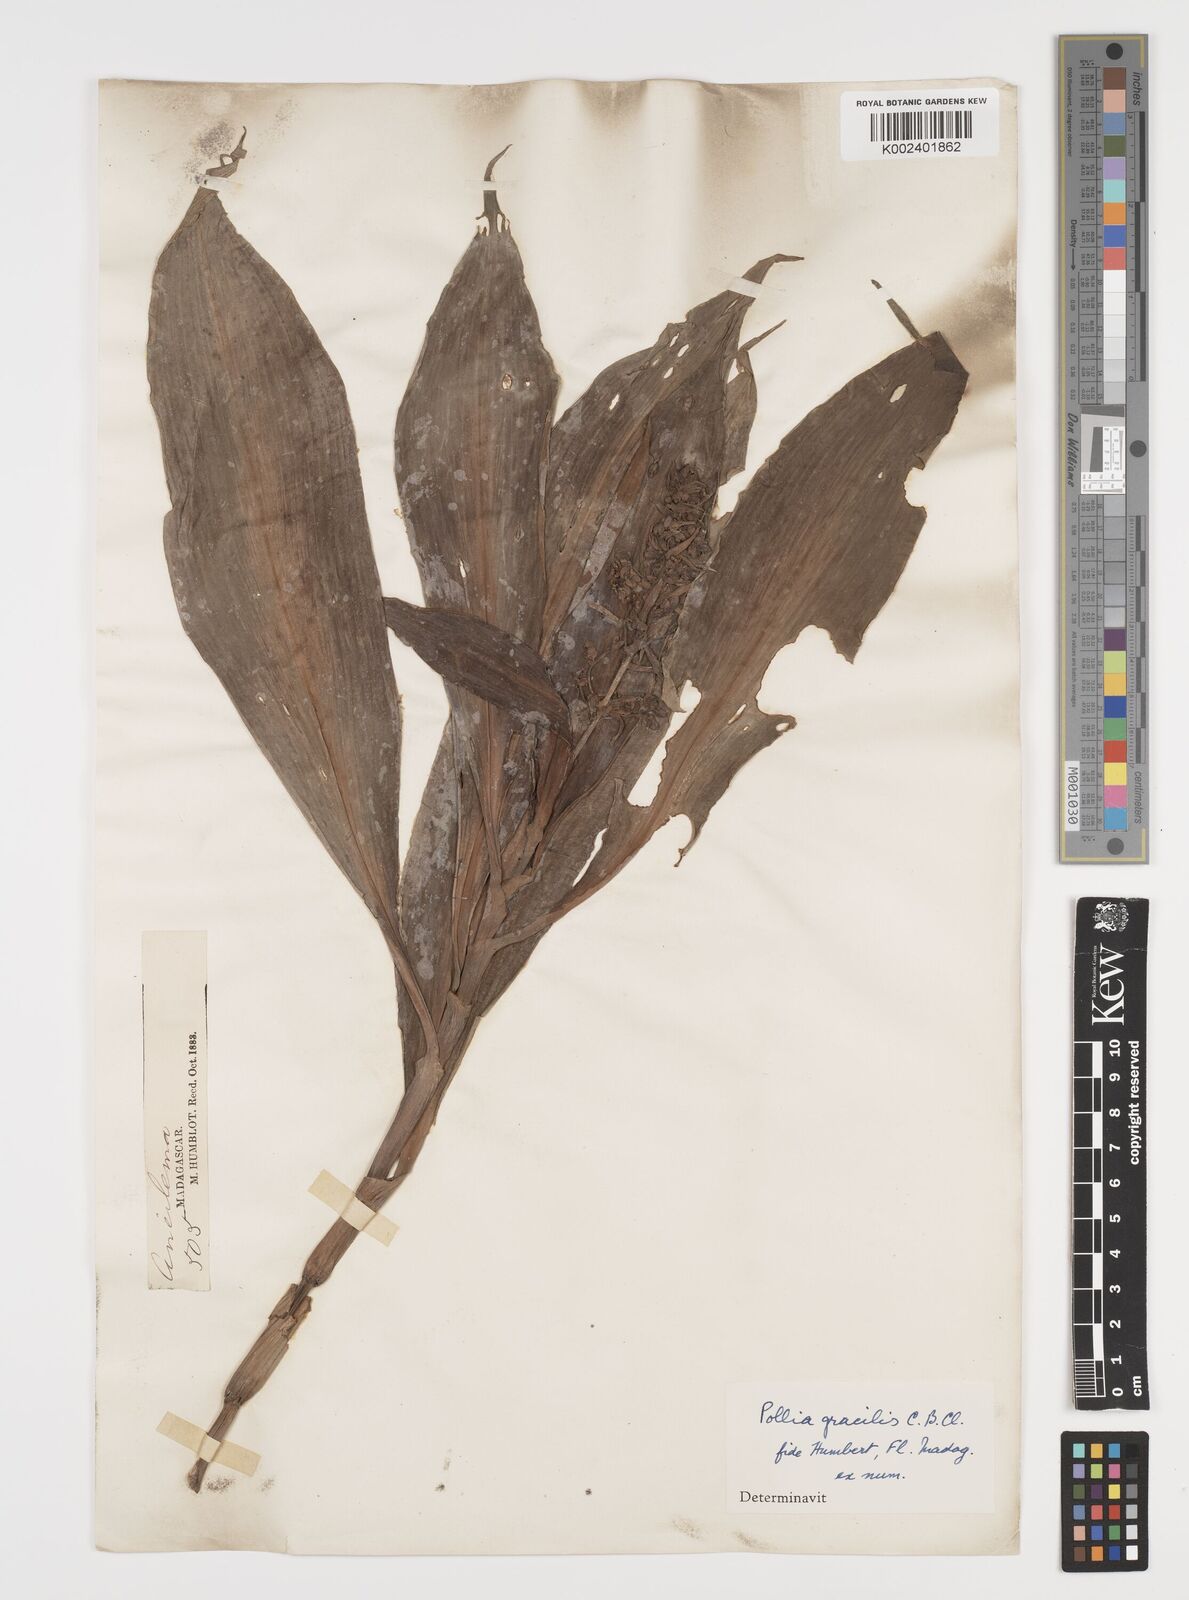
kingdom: Plantae
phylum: Tracheophyta
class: Liliopsida
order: Commelinales
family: Commelinaceae
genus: Pollia
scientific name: Pollia gracilis
